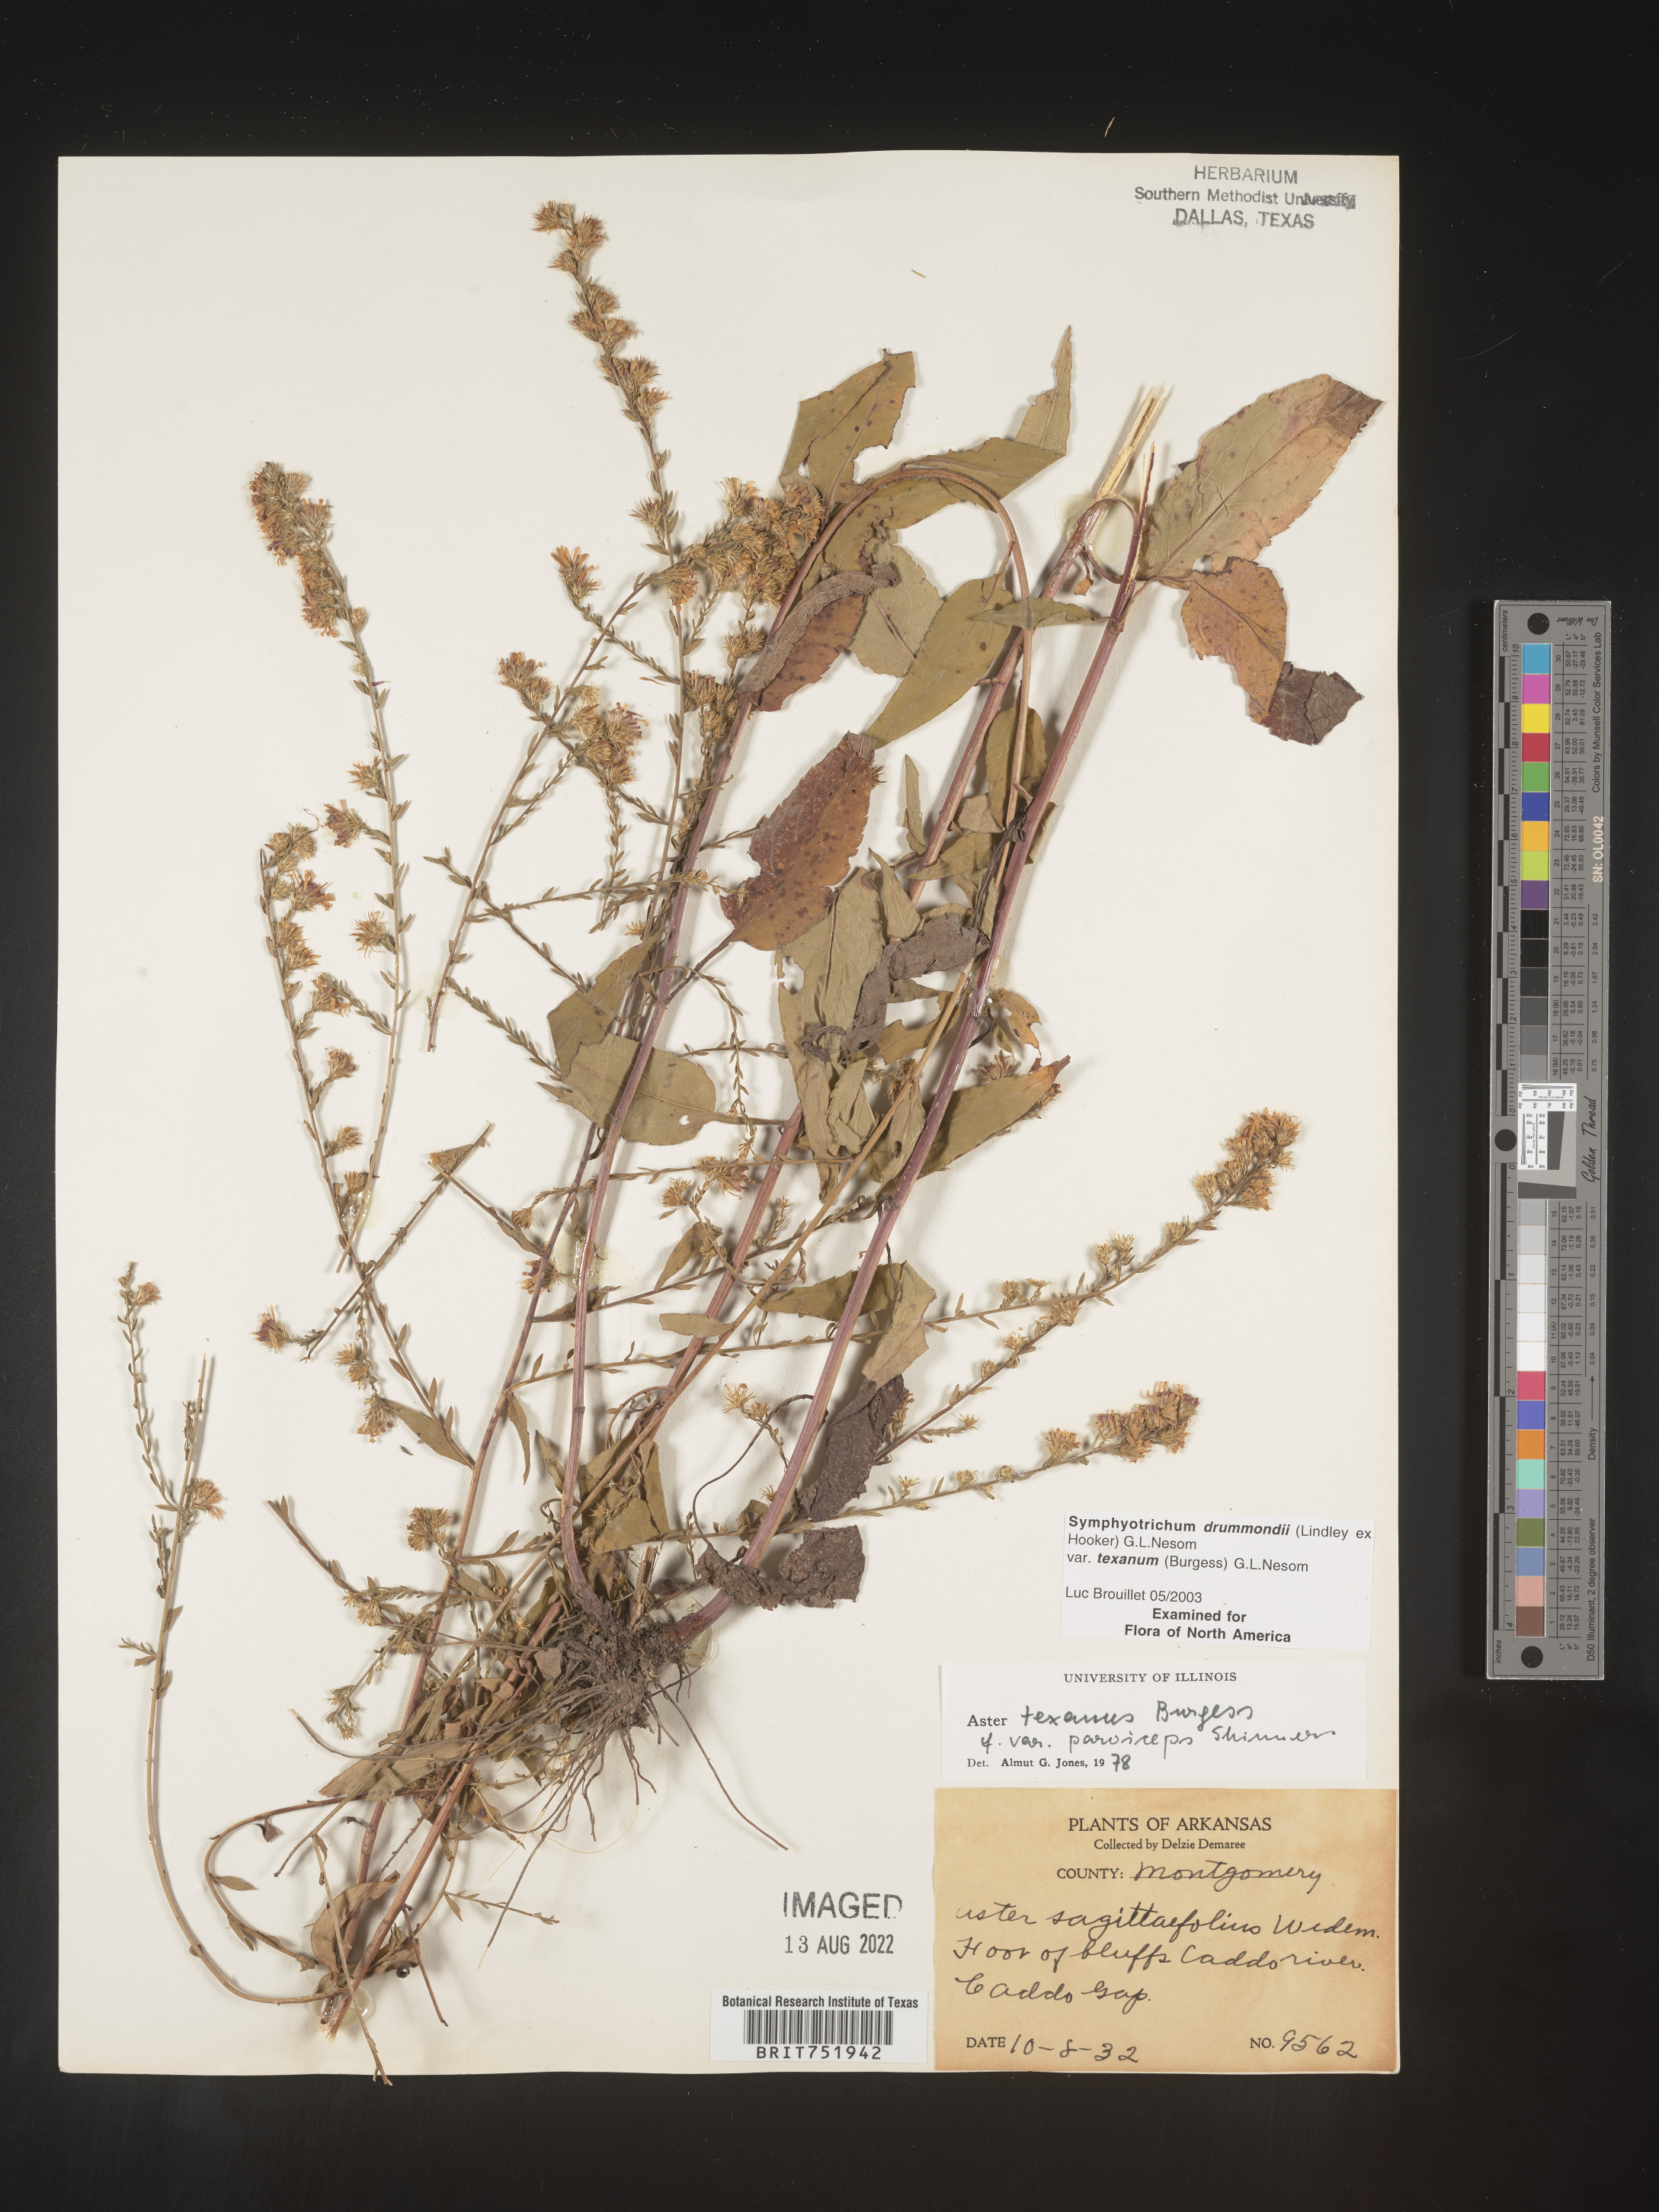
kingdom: Plantae
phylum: Tracheophyta
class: Magnoliopsida
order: Asterales
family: Asteraceae
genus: Symphyotrichum
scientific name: Symphyotrichum drummondii
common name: Drummond's aster
